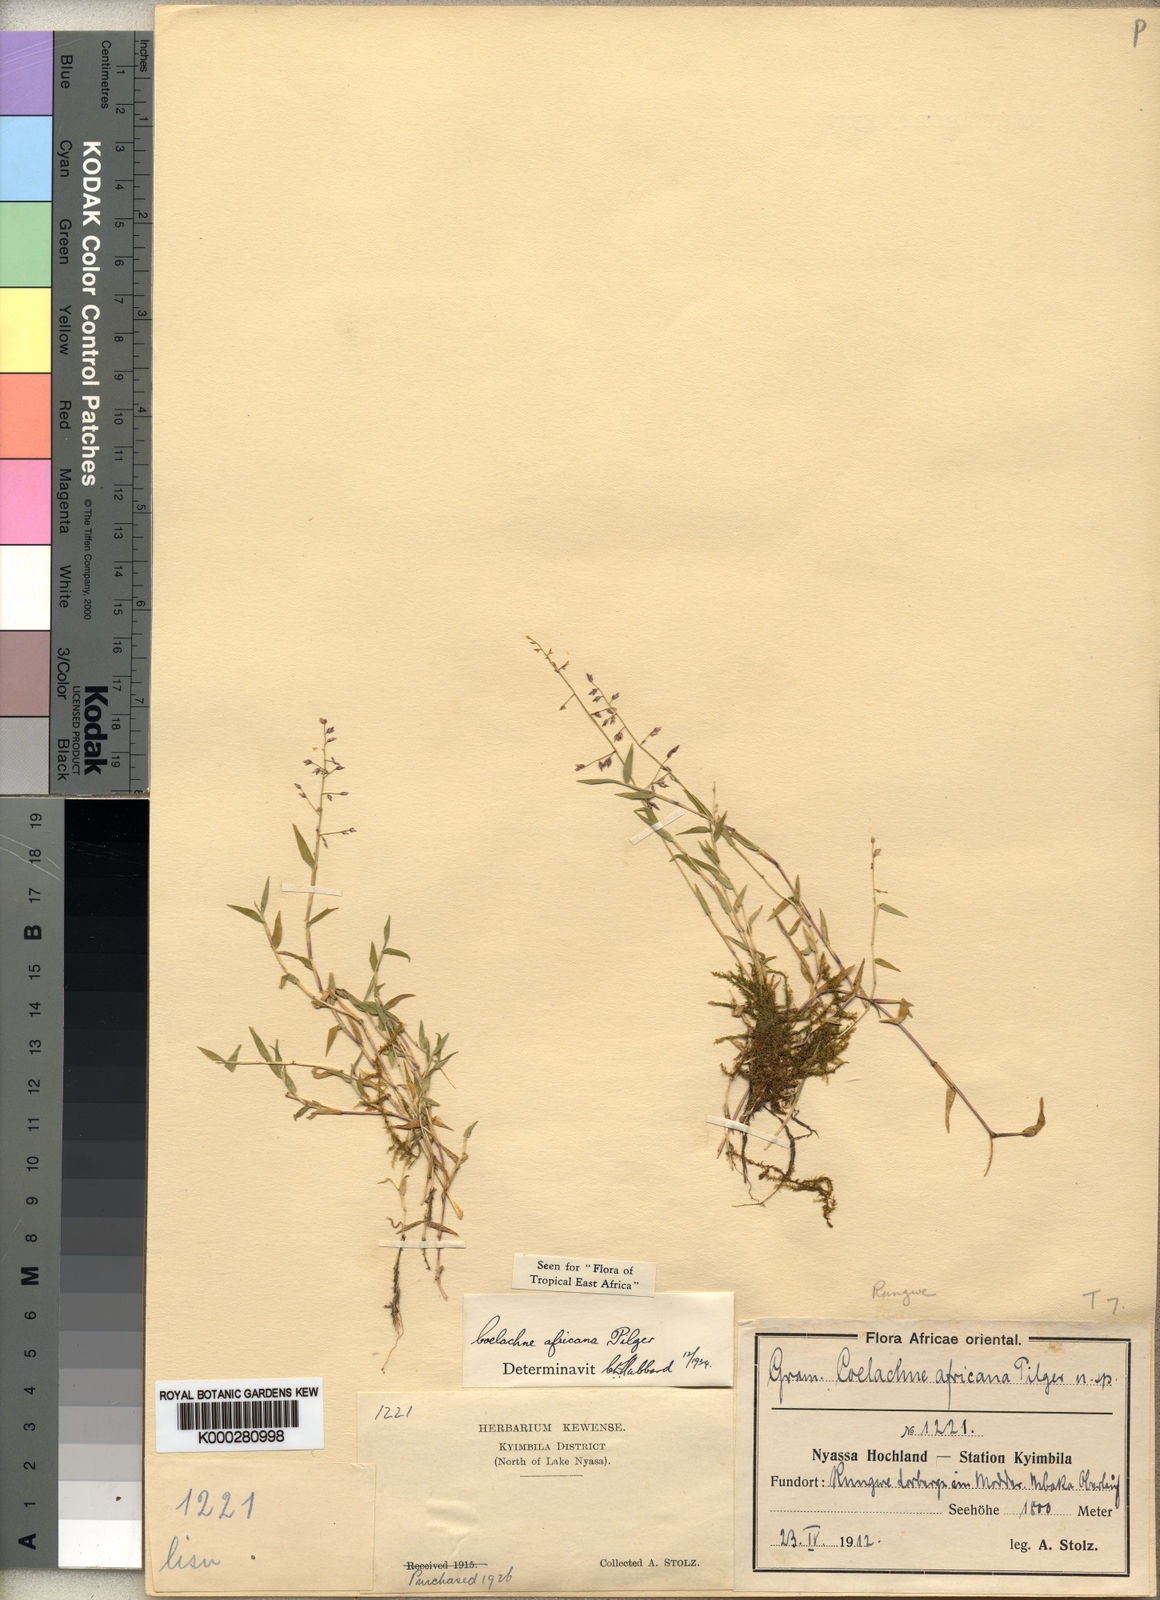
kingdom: Plantae
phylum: Tracheophyta
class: Liliopsida
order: Poales
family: Poaceae
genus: Coelachne
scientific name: Coelachne africana
